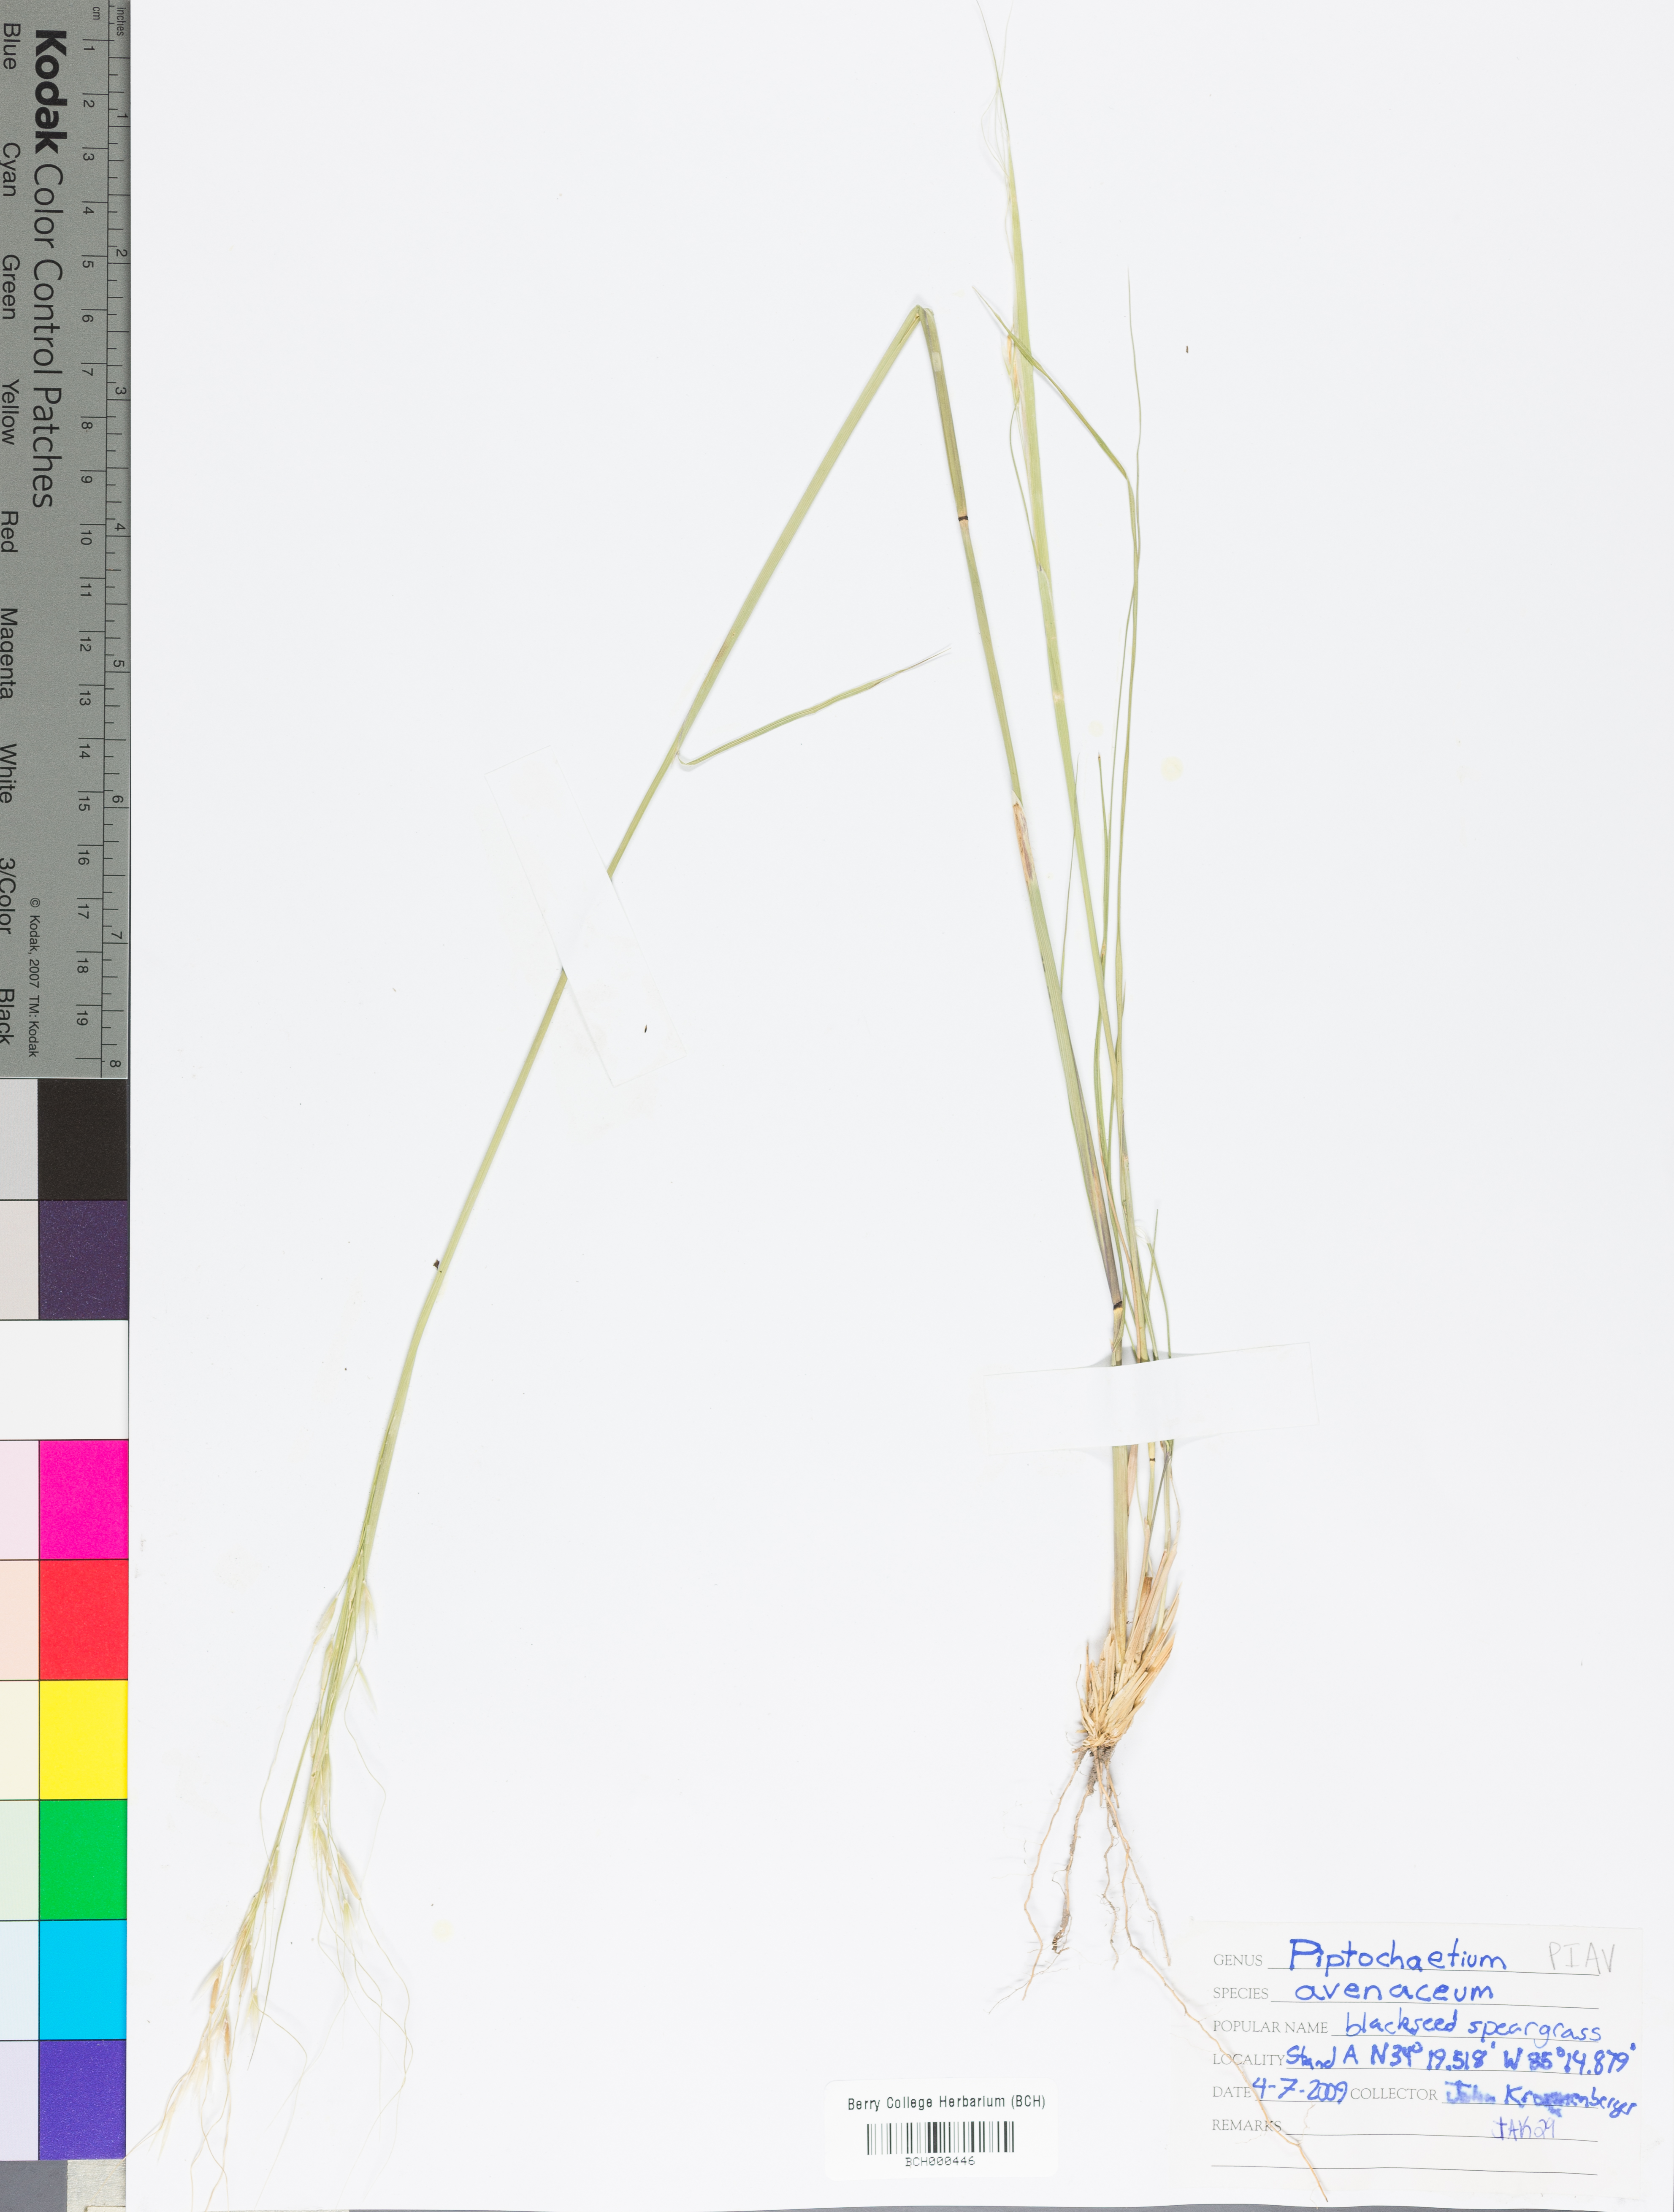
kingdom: Plantae
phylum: Tracheophyta
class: Liliopsida
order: Poales
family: Poaceae
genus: Piptochaetium
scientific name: Piptochaetium avenaceum
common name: Black bunchgrass
